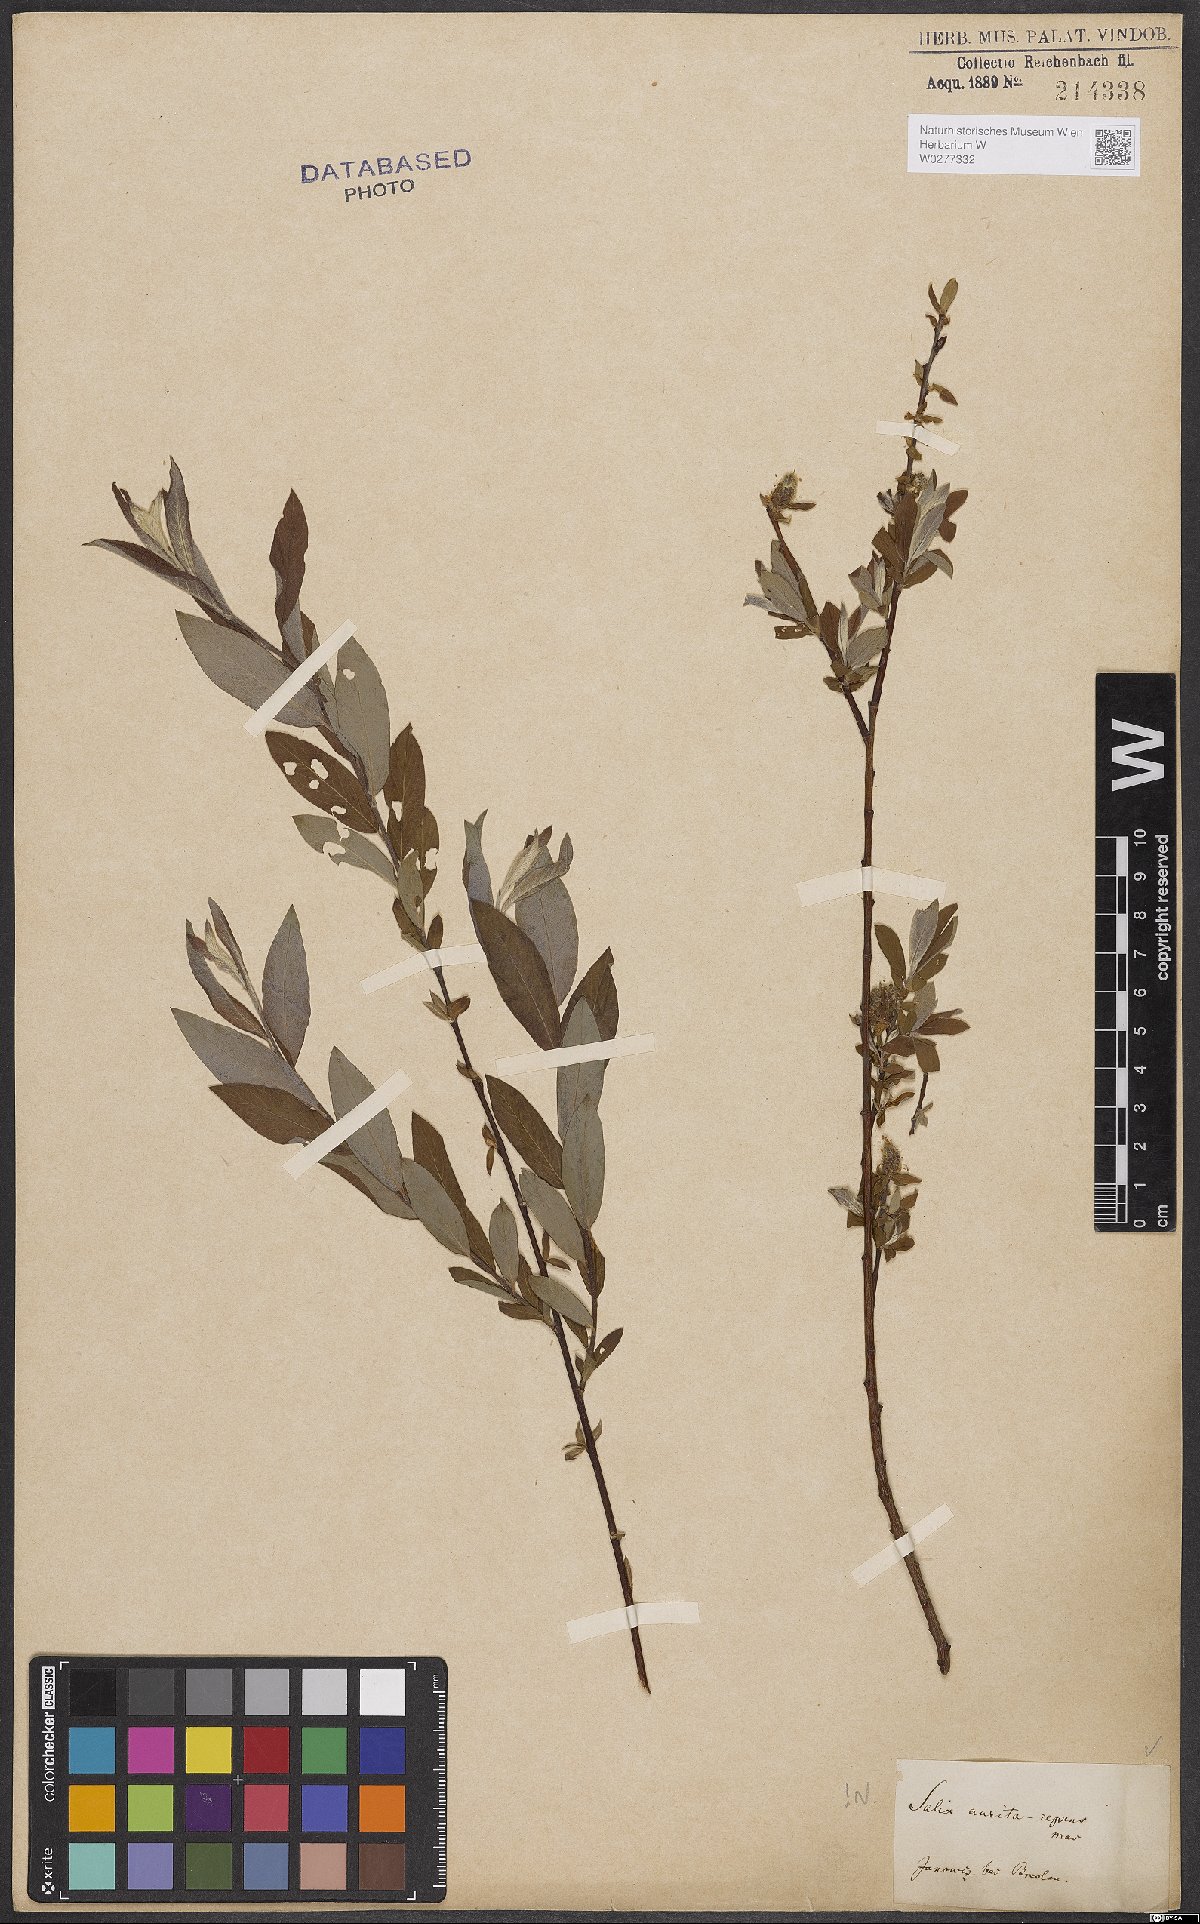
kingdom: Plantae
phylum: Tracheophyta
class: Magnoliopsida
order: Malpighiales
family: Salicaceae
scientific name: Salicaceae
